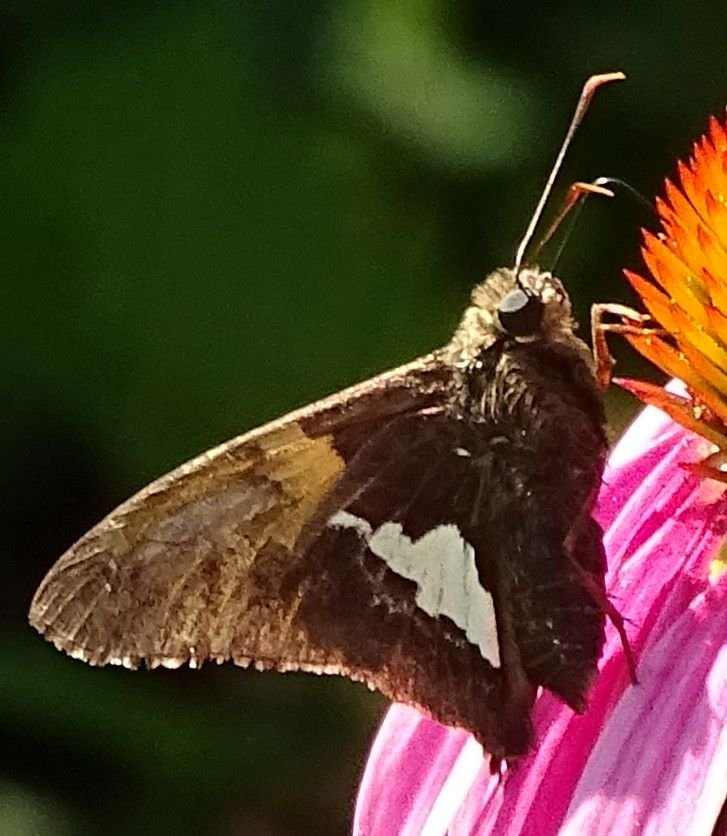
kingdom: Animalia
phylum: Arthropoda
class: Insecta
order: Lepidoptera
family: Hesperiidae
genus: Epargyreus
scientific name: Epargyreus clarus
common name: Silver-spotted Skipper
